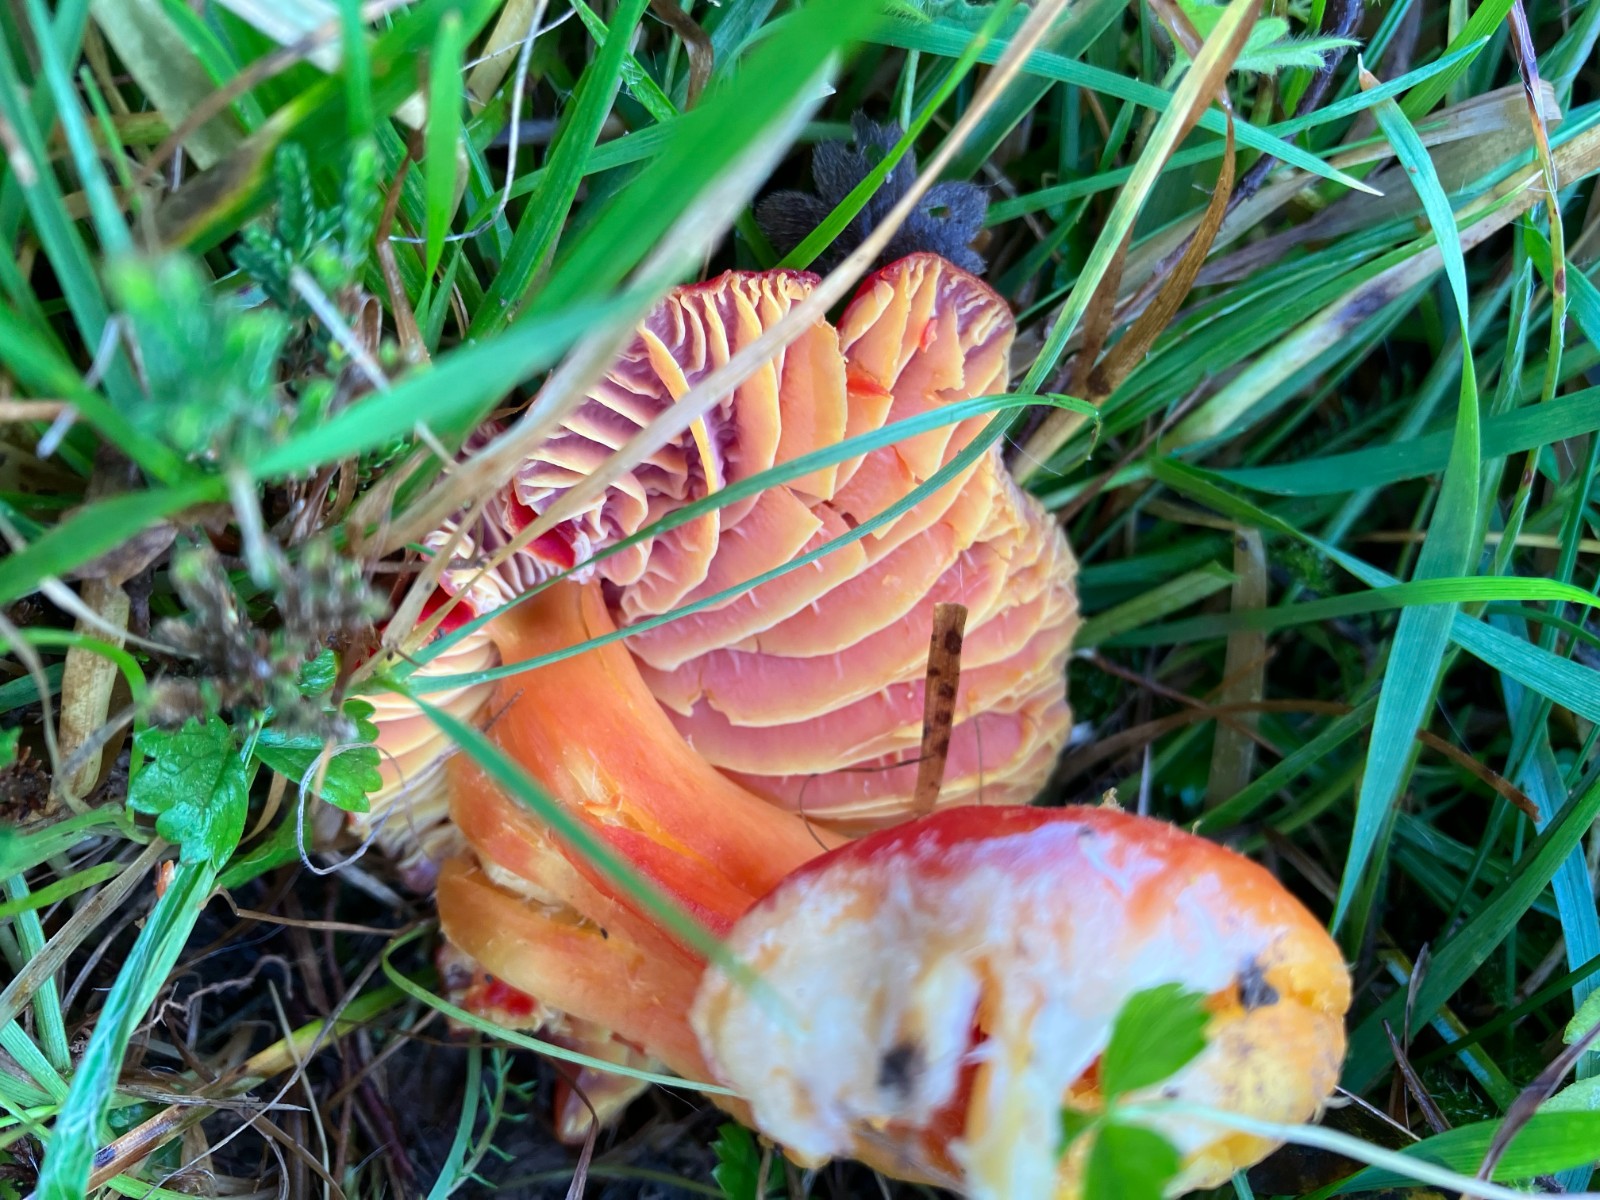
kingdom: Fungi
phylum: Basidiomycota
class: Agaricomycetes
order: Agaricales
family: Hygrophoraceae
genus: Hygrocybe
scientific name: Hygrocybe splendidissima
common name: knaldrød vokshat
